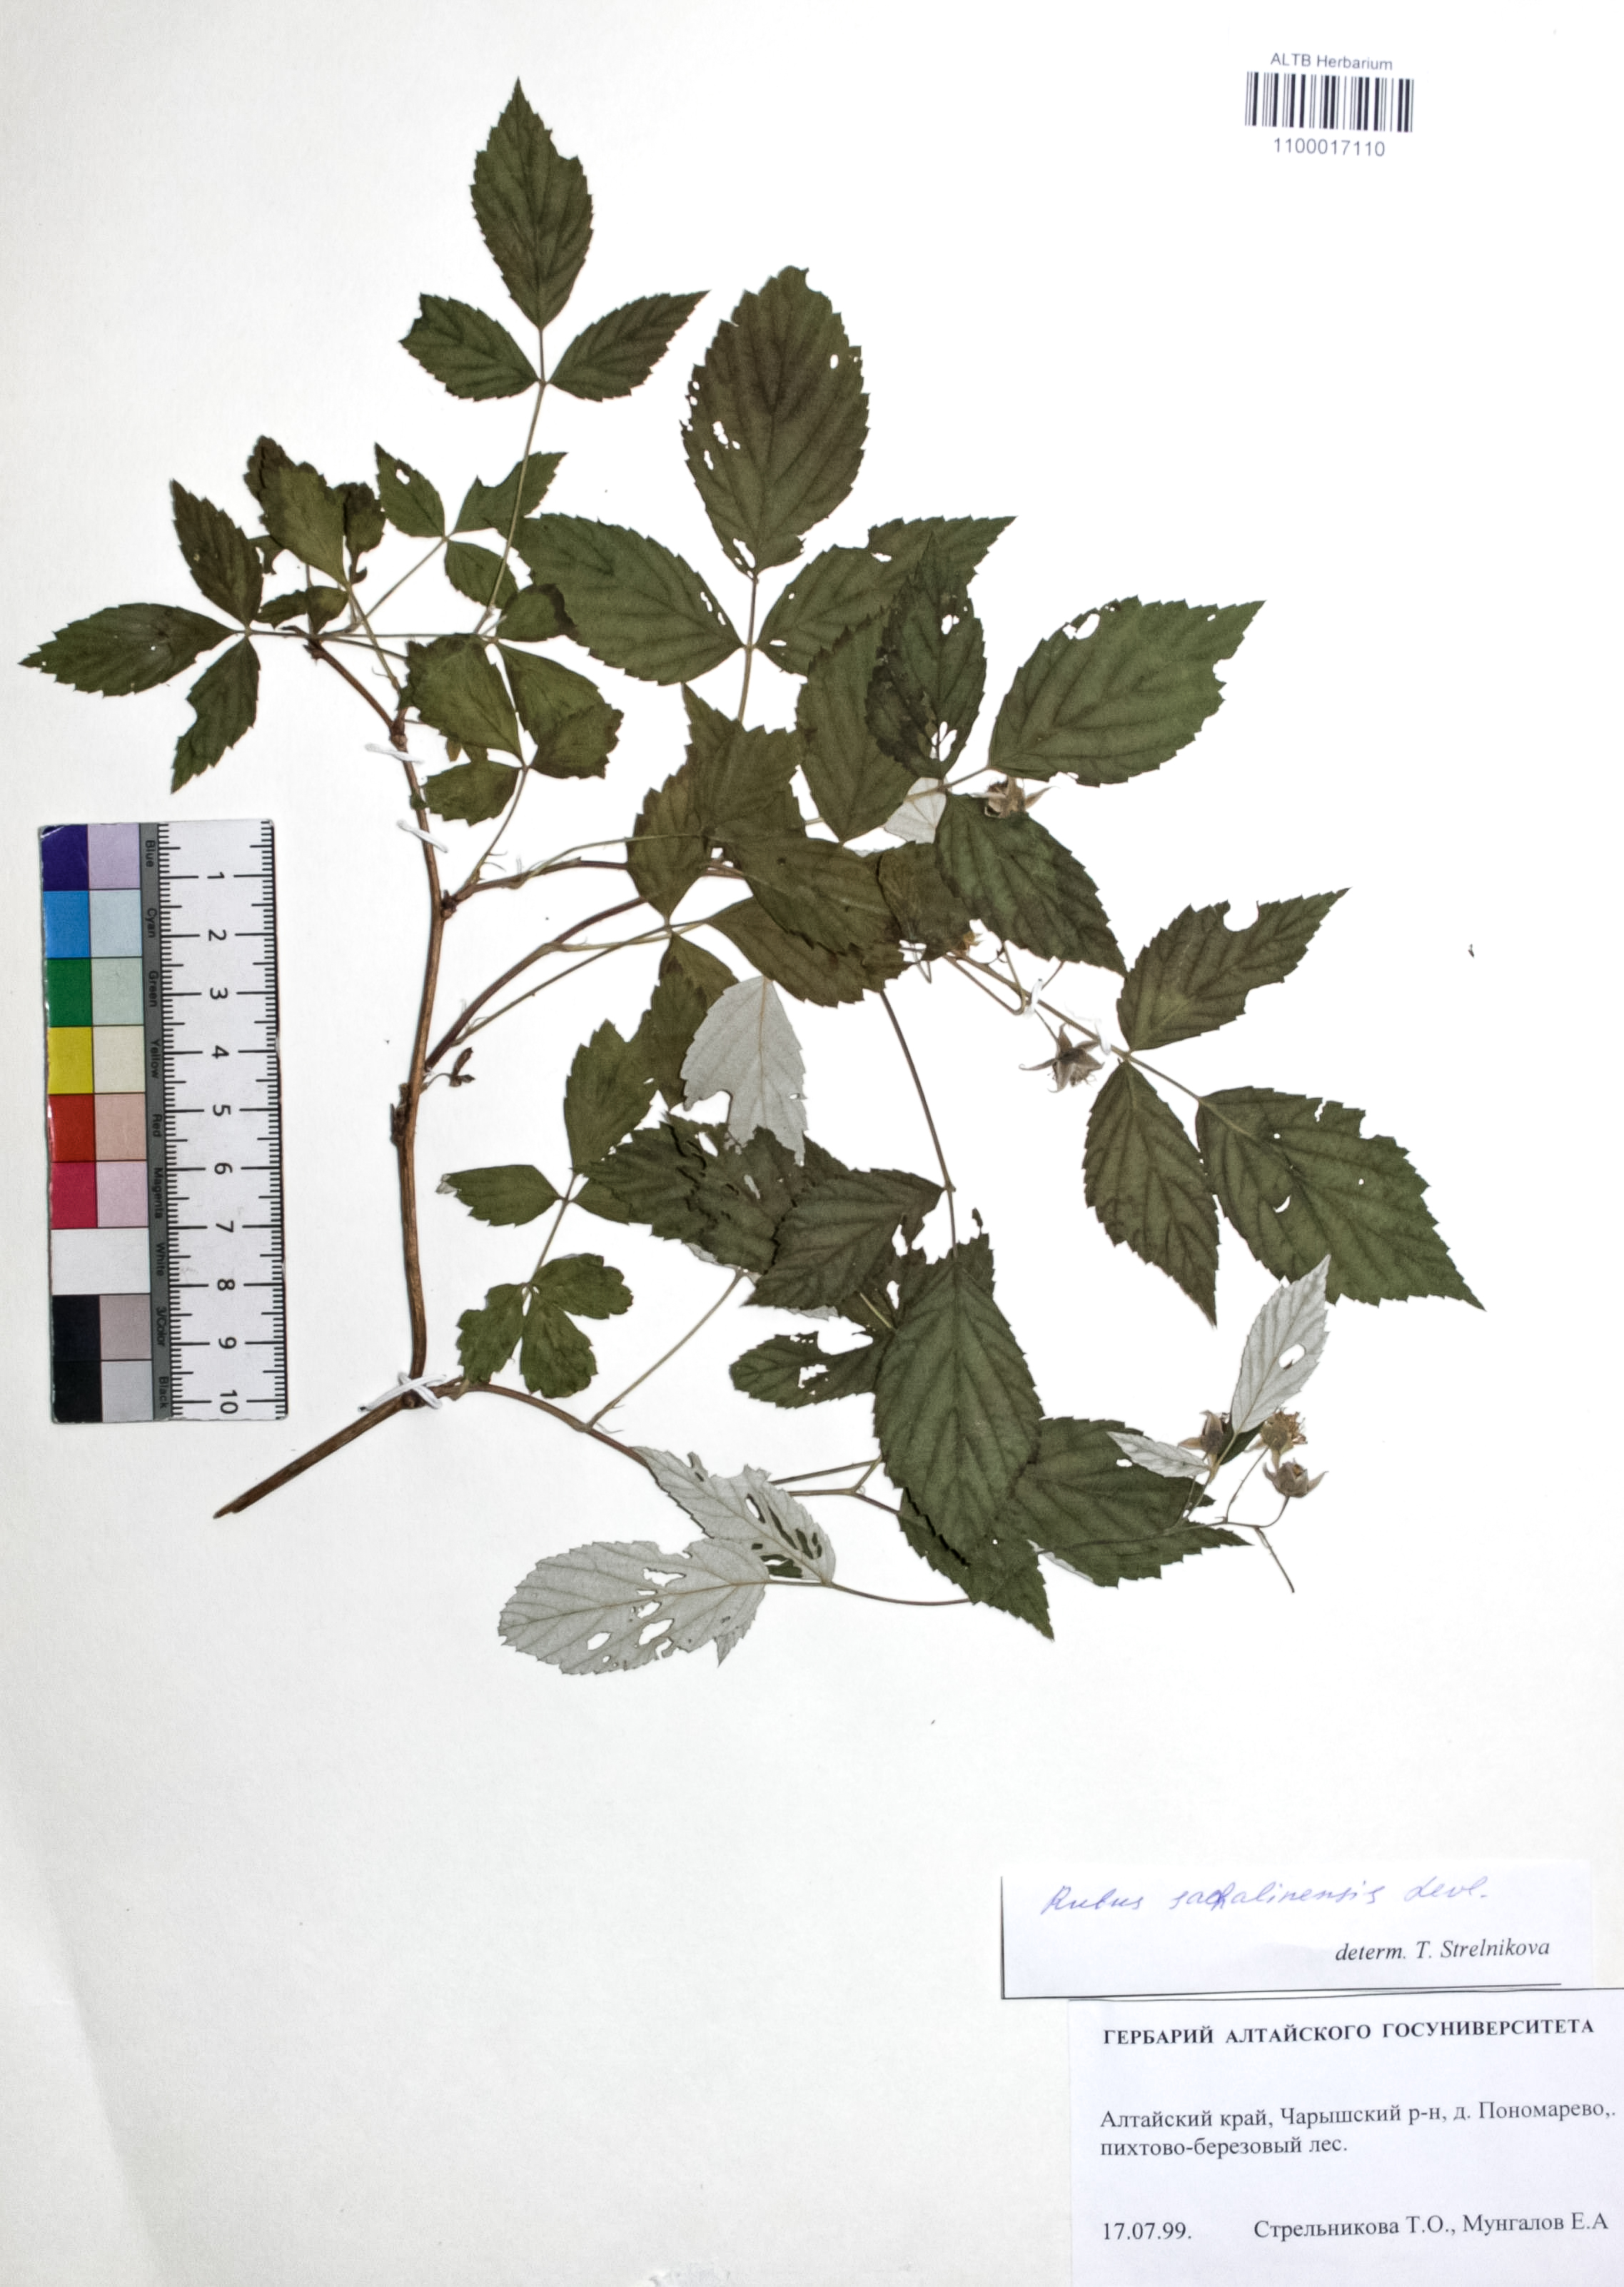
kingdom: Plantae
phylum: Tracheophyta
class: Magnoliopsida
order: Rosales
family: Rosaceae
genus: Rubus
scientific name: Rubus sachalinensis
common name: Red raspberry
